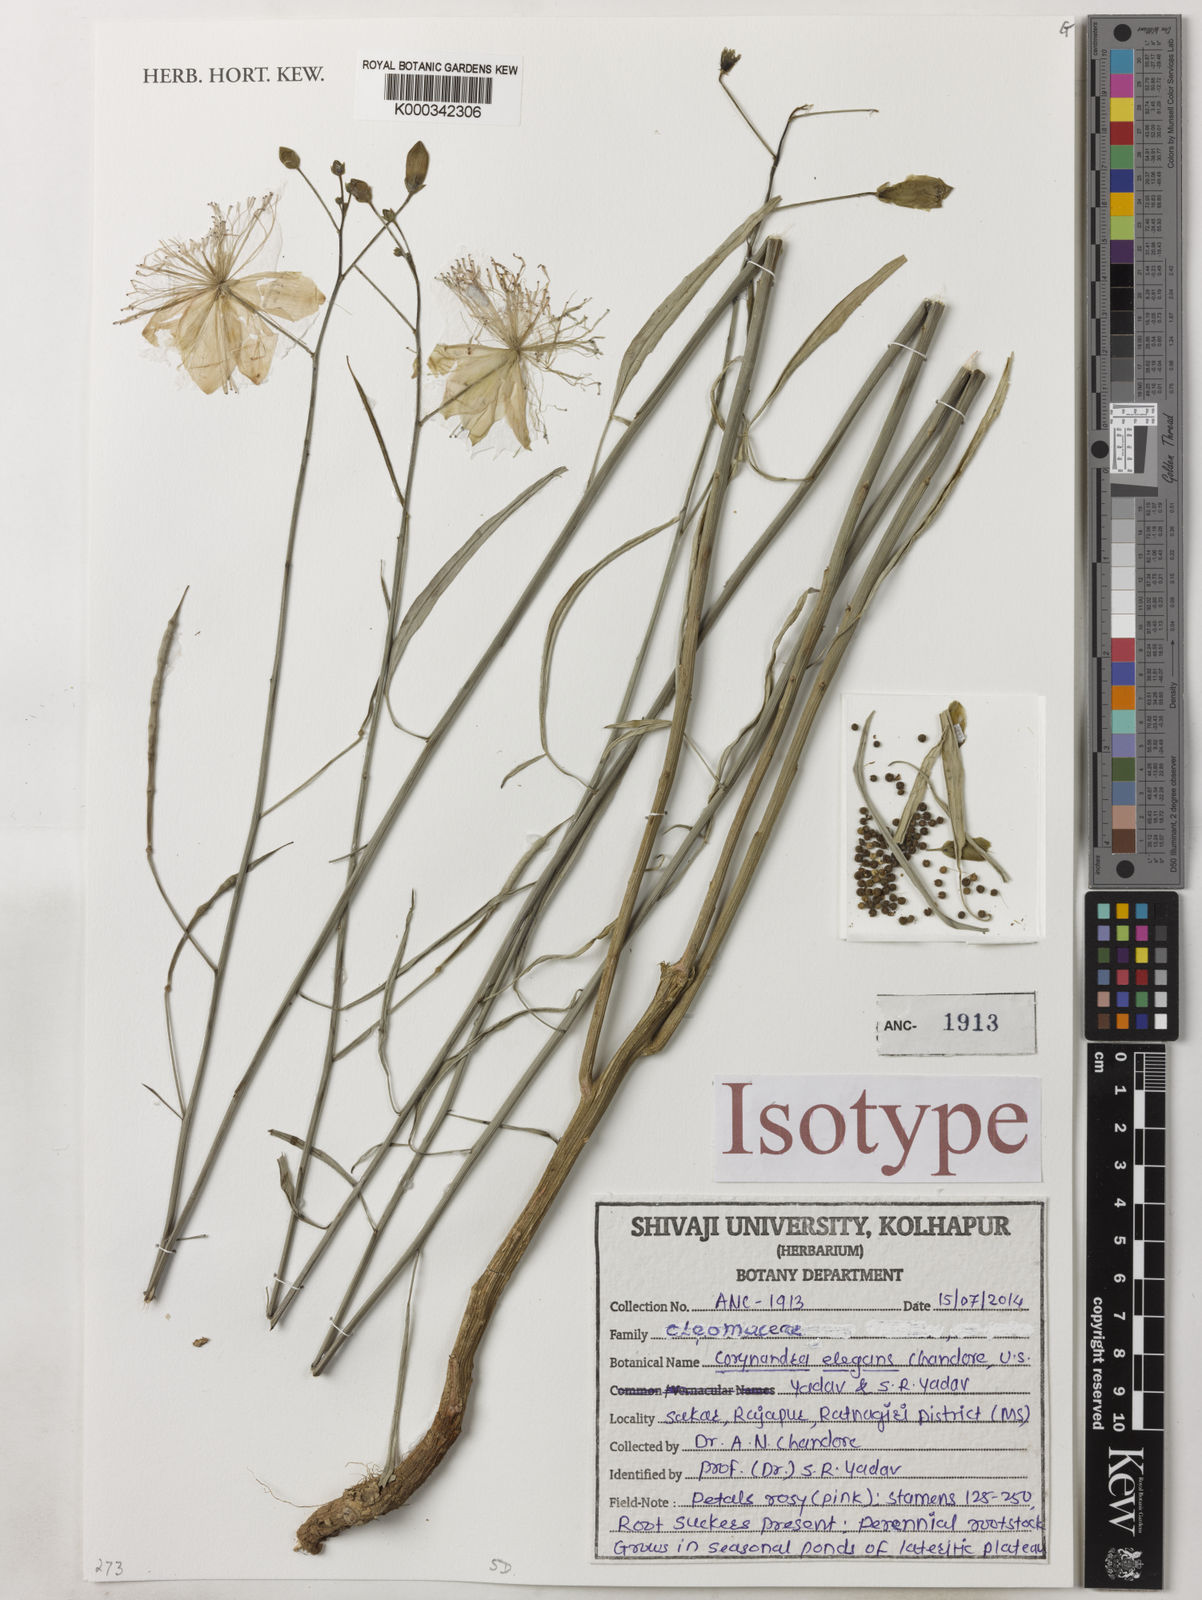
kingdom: Plantae
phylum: Tracheophyta
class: Magnoliopsida
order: Brassicales
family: Cleomaceae
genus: Corynandra
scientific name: Corynandra chelidonii
